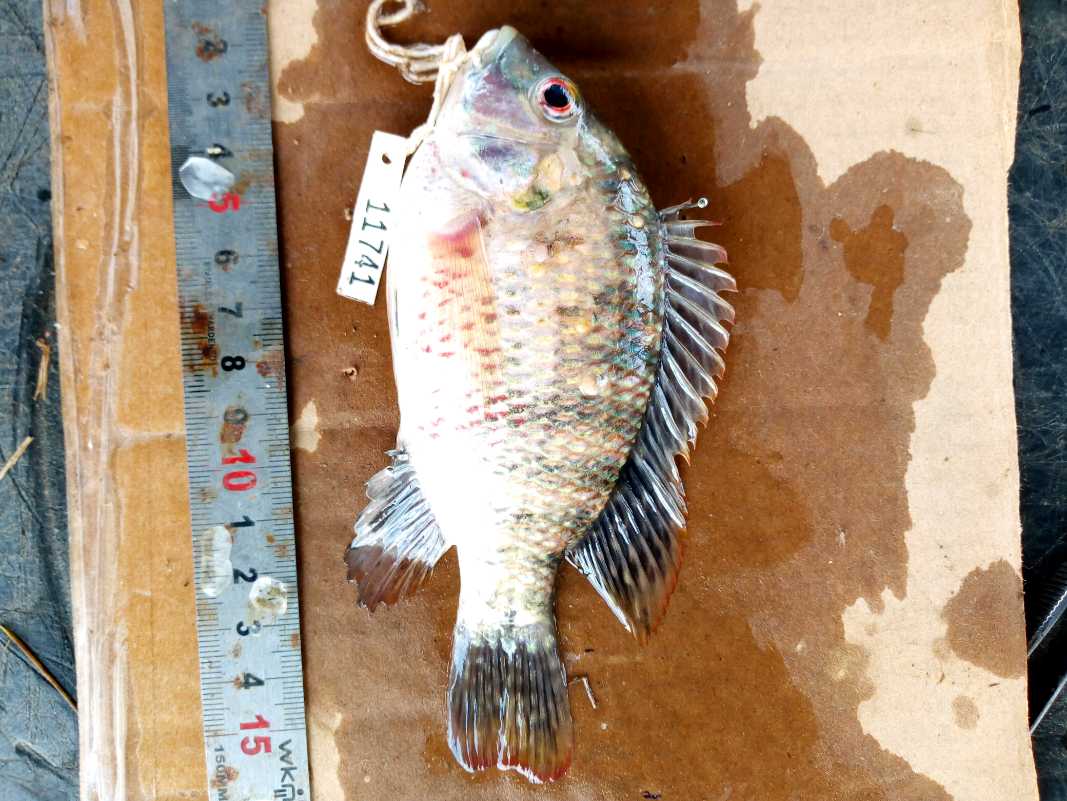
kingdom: Animalia
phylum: Chordata
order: Perciformes
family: Cichlidae
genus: Coptodon
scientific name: Coptodon zillii
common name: Redbelly tilapia
